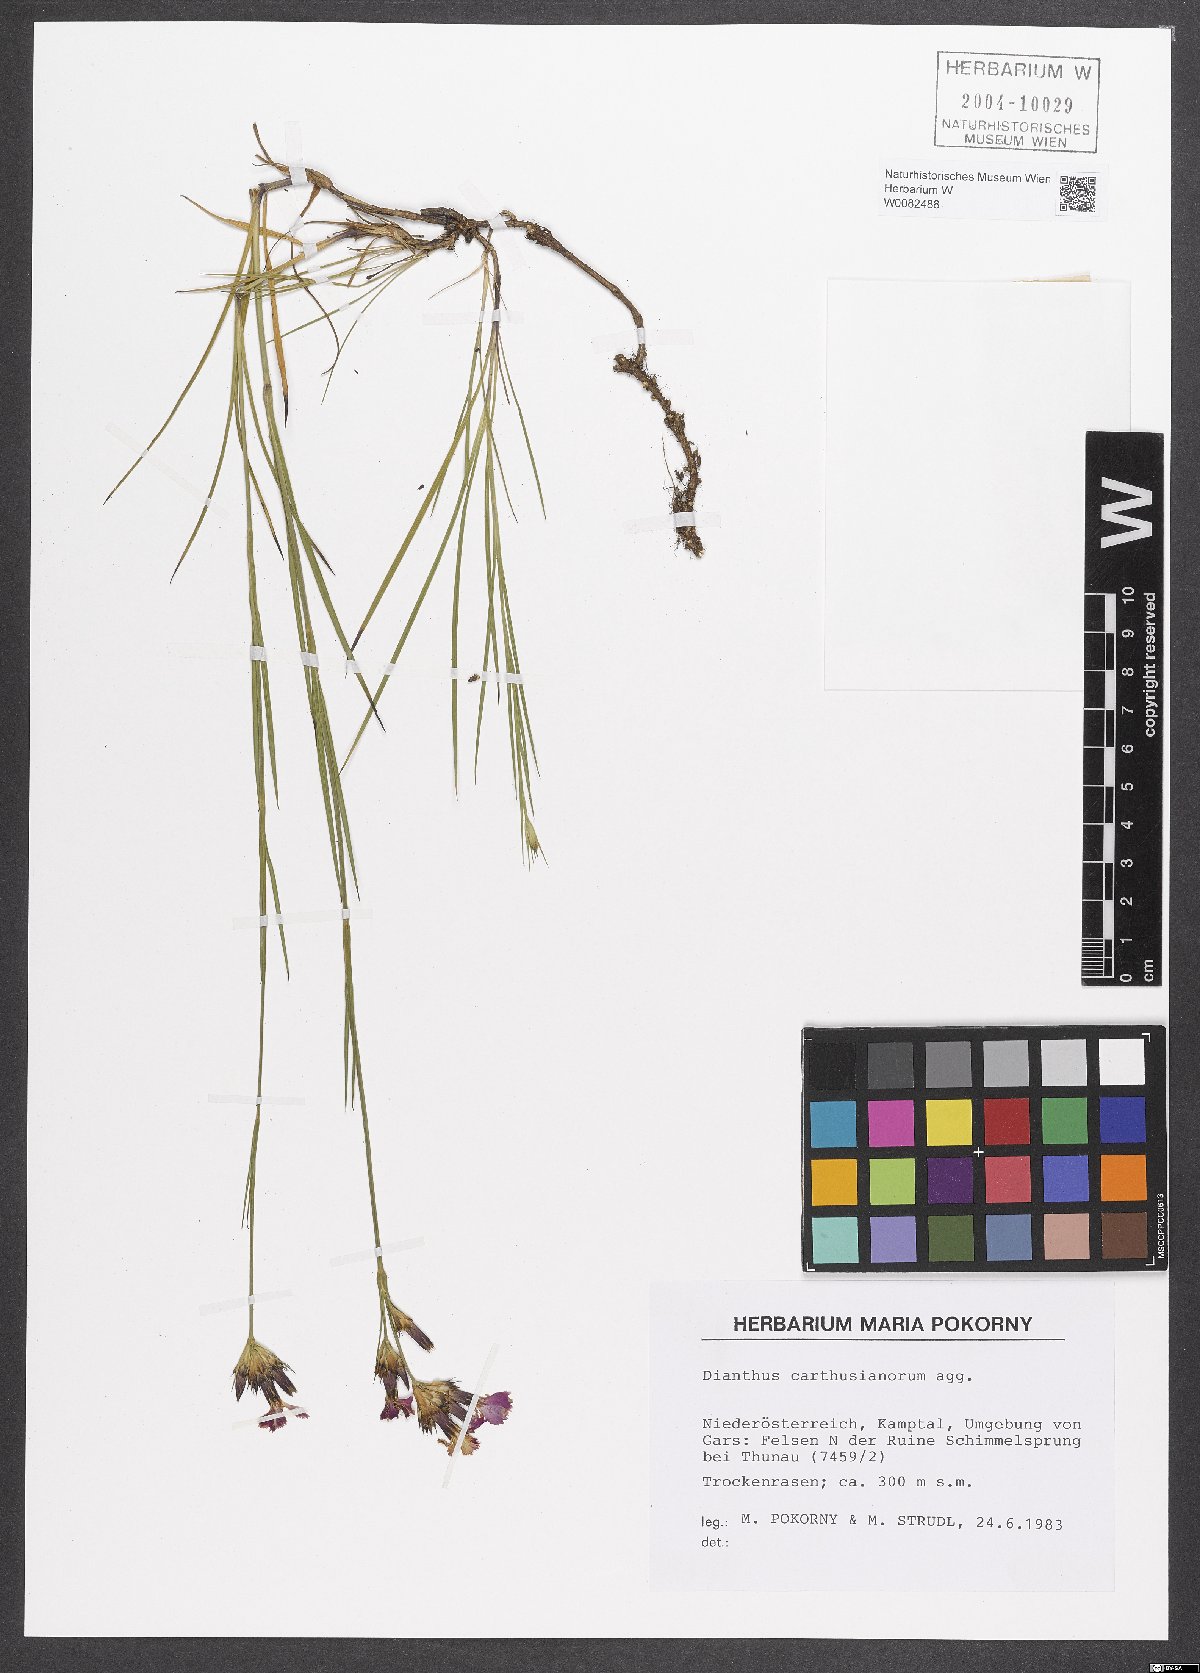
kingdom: Plantae
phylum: Tracheophyta
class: Magnoliopsida
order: Caryophyllales
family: Caryophyllaceae
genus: Dianthus
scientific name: Dianthus carthusianorum
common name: Carthusian pink
